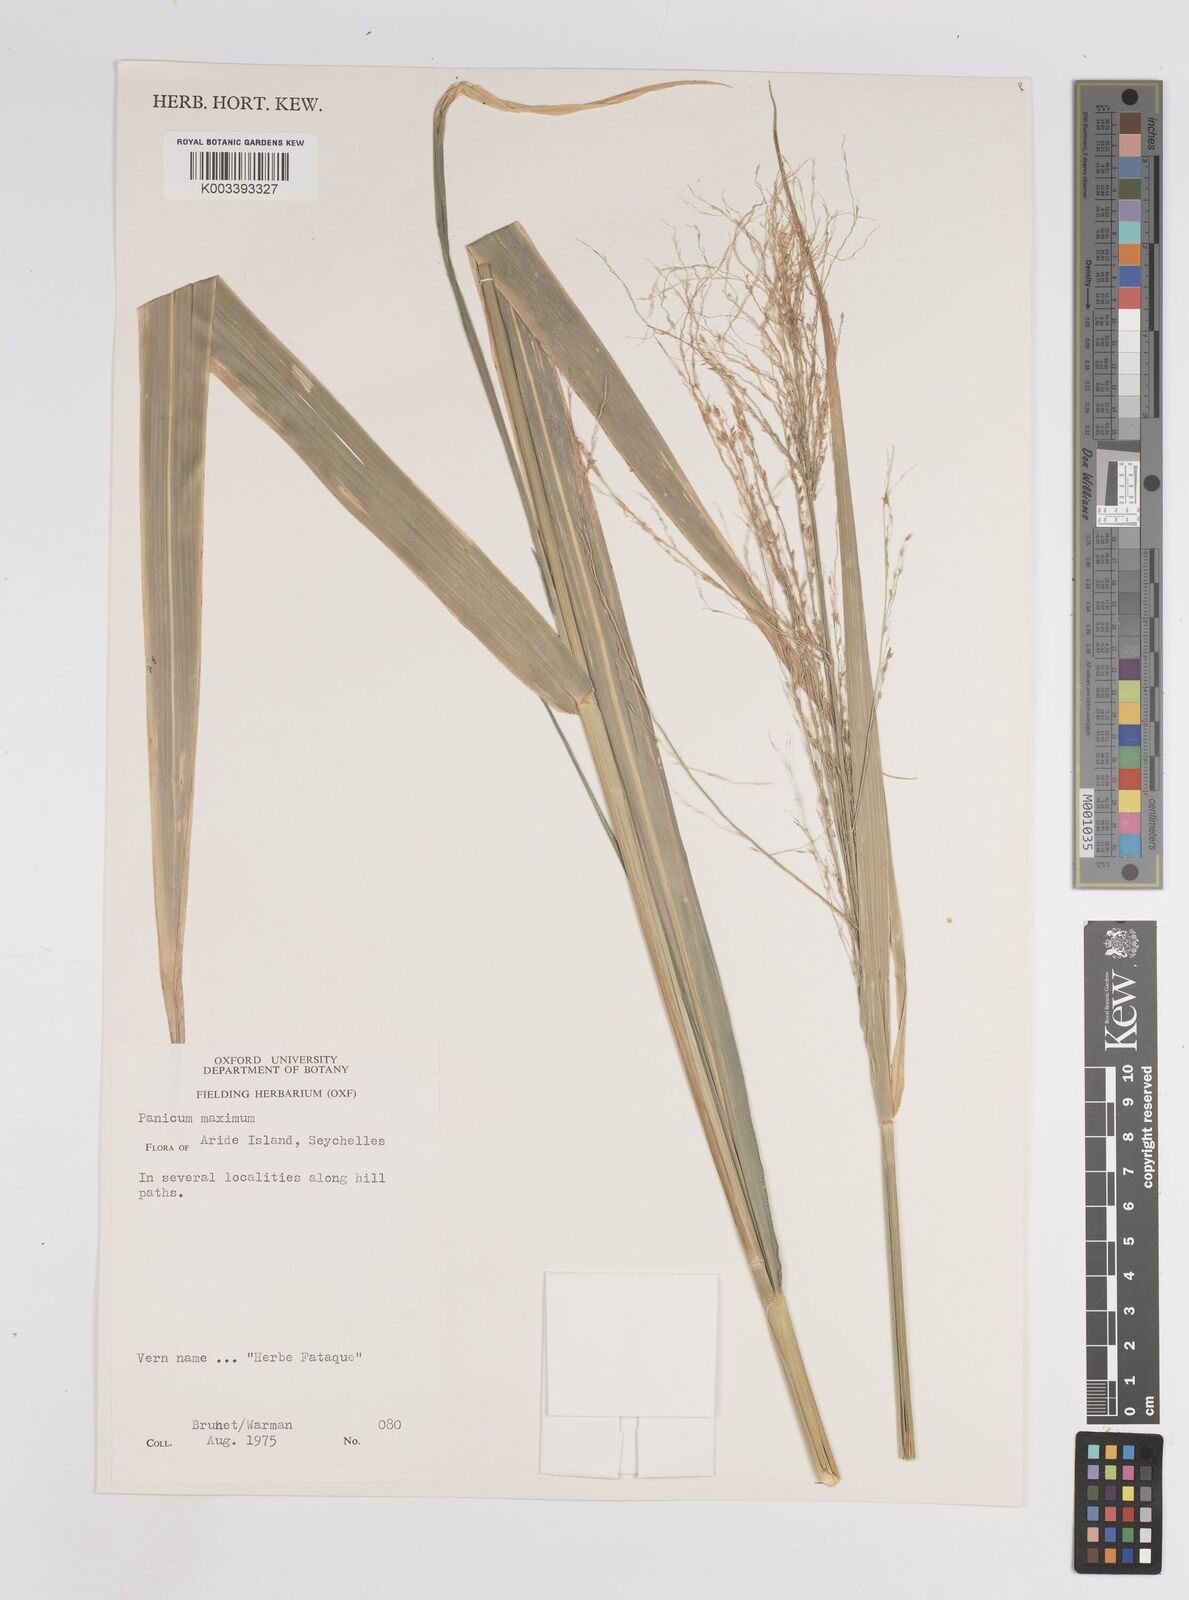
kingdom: Plantae
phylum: Tracheophyta
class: Liliopsida
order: Poales
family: Poaceae
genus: Megathyrsus
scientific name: Megathyrsus maximus
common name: Guineagrass
